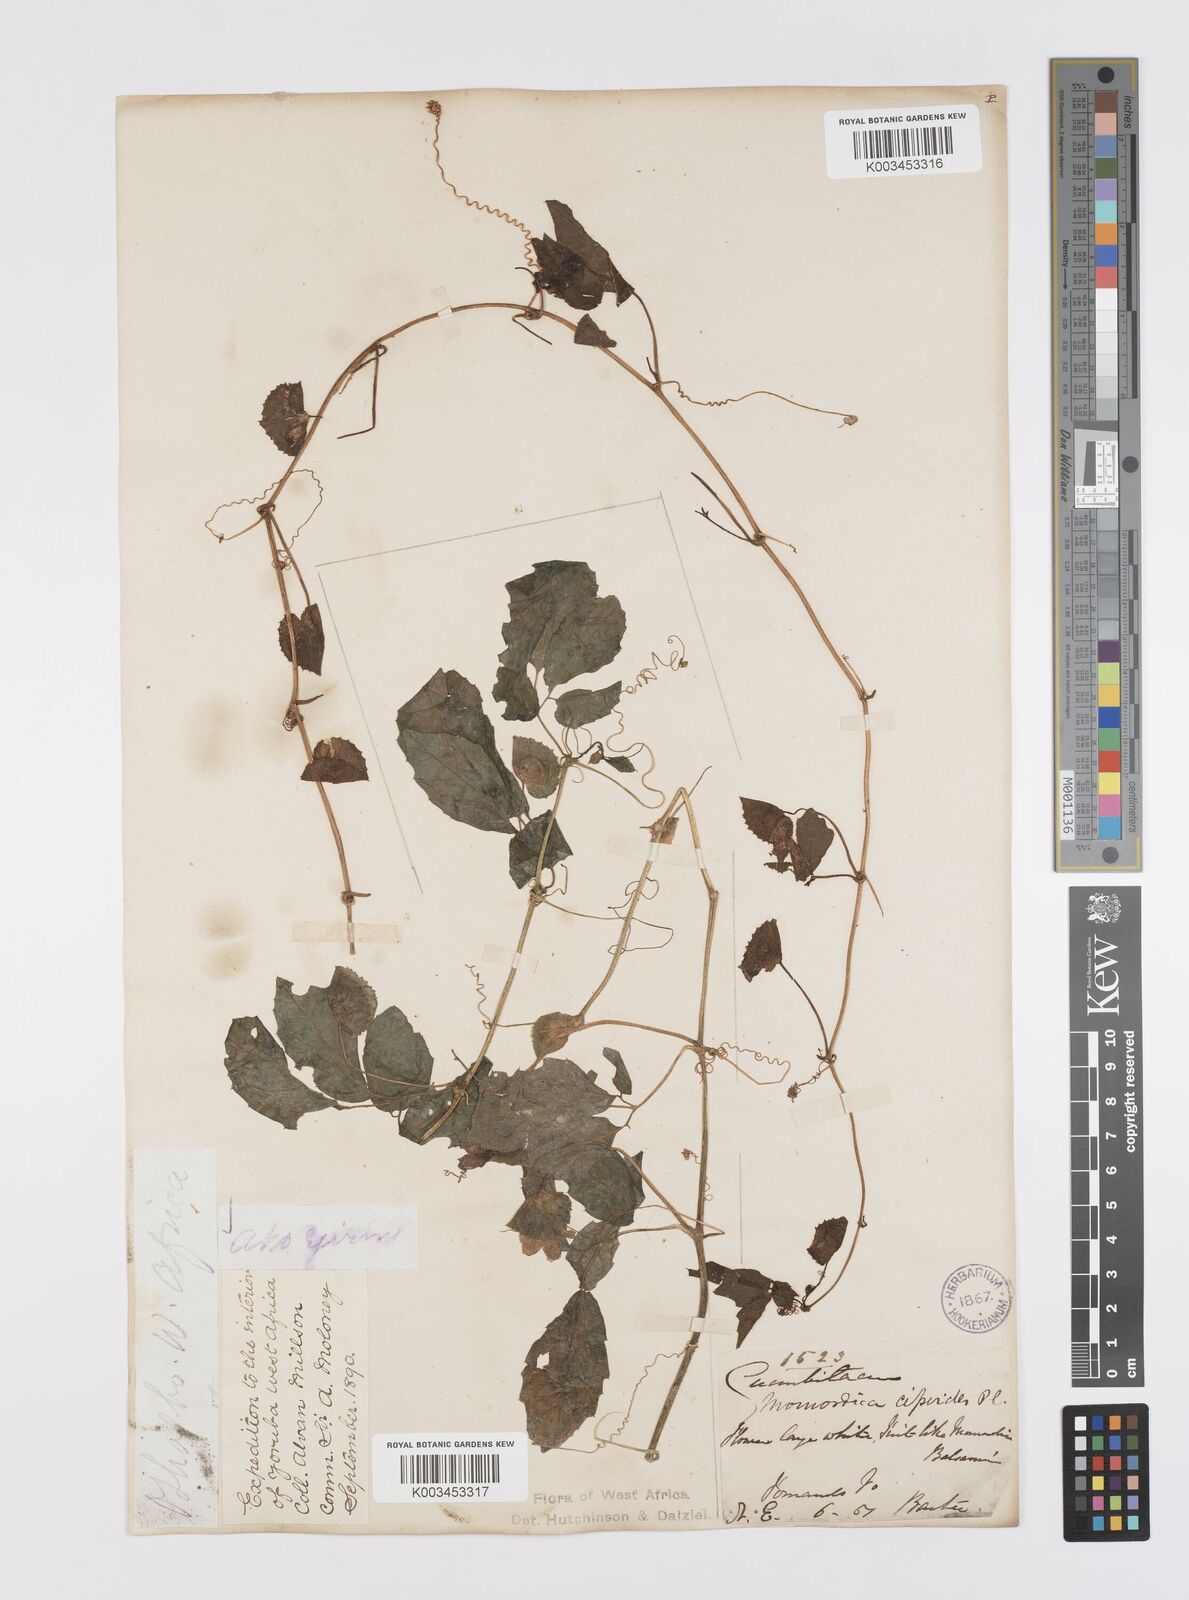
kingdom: Plantae
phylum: Tracheophyta
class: Magnoliopsida
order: Cucurbitales
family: Cucurbitaceae
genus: Momordica
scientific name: Momordica cissoides
